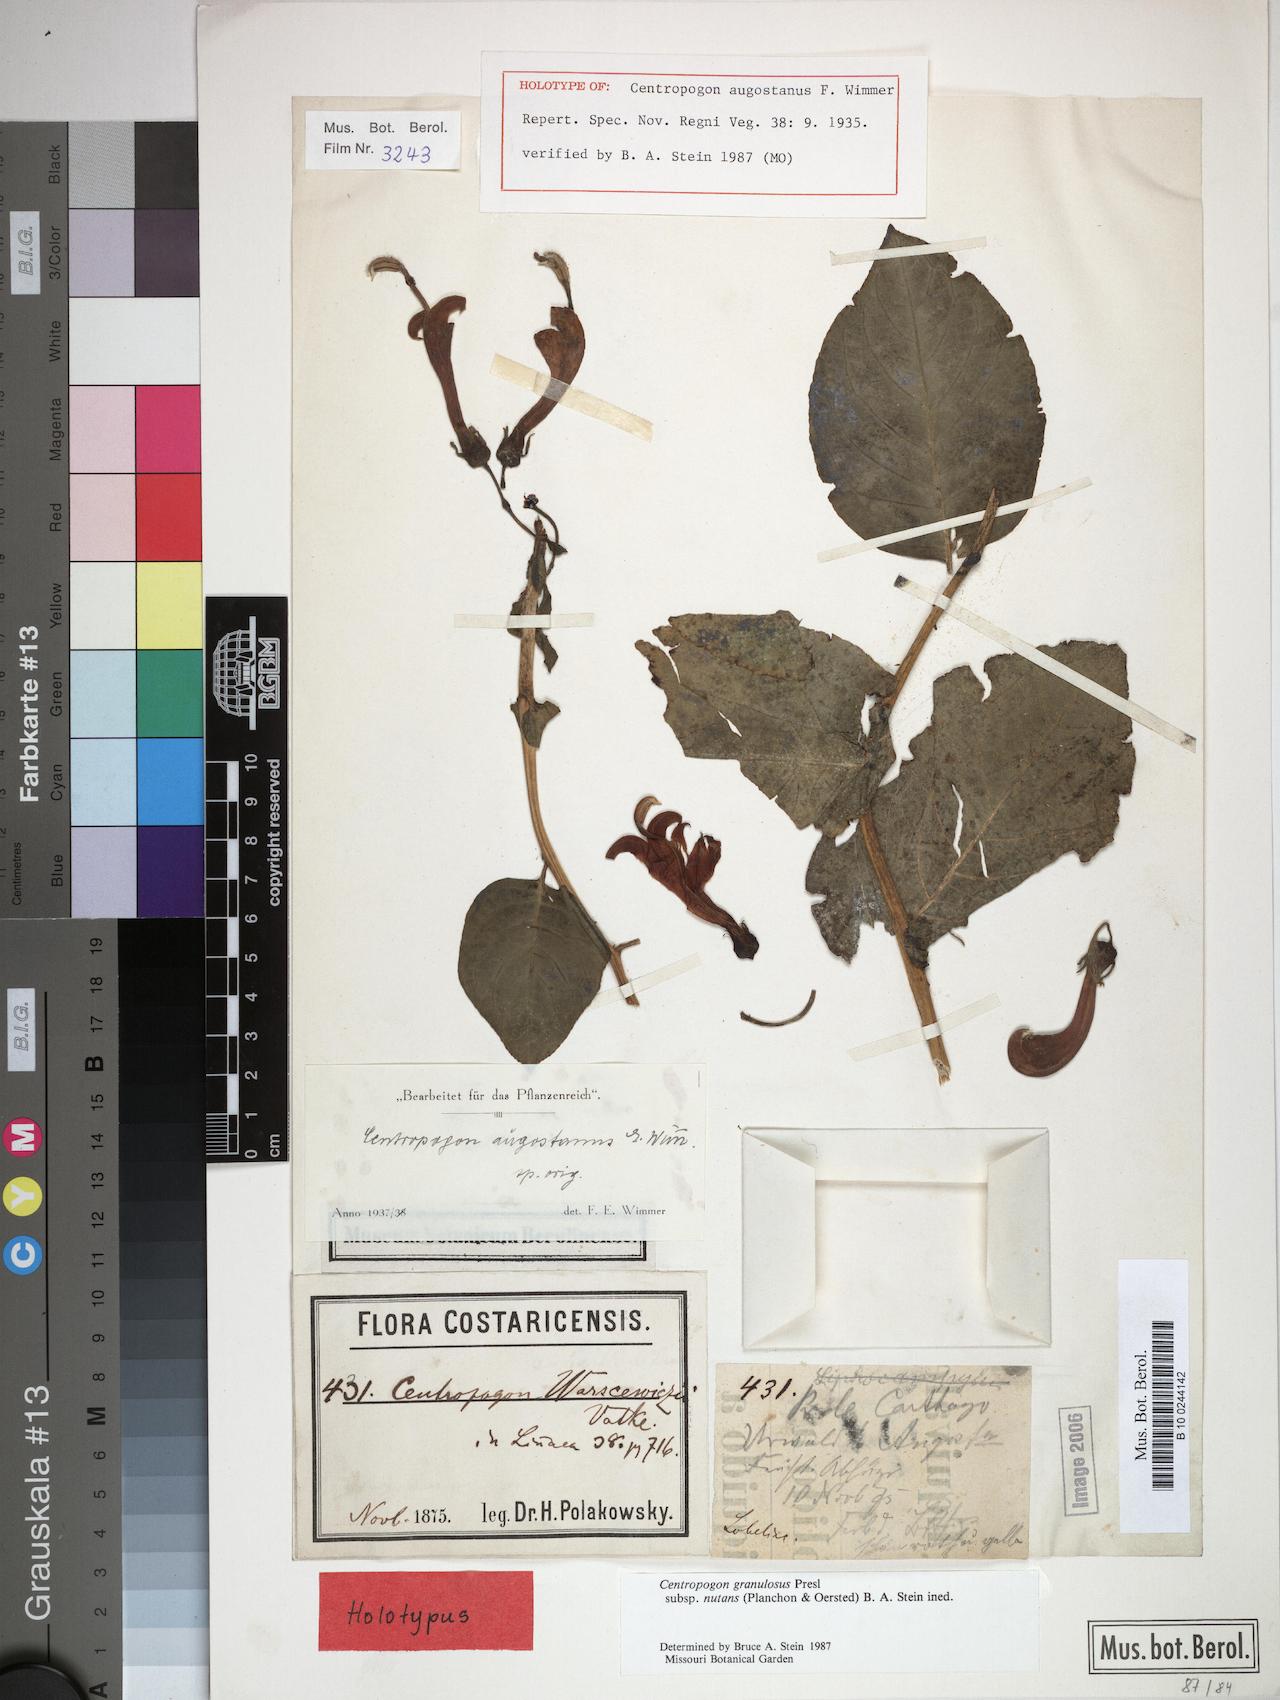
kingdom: Plantae
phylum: Tracheophyta
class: Magnoliopsida
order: Asterales
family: Campanulaceae
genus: Centropogon
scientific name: Centropogon granulosus
